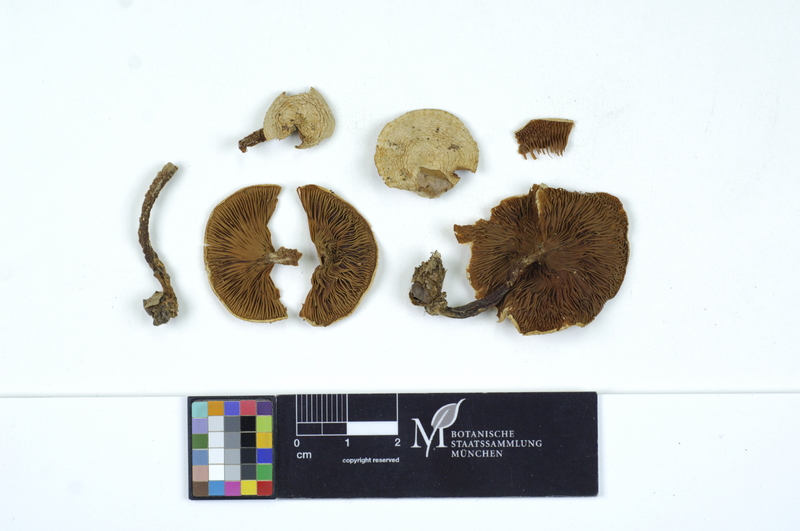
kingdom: Fungi
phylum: Basidiomycota
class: Agaricomycetes
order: Agaricales
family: Tricholomataceae
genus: Ripartites
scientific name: Ripartites tricholoma
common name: Bearded seamine
